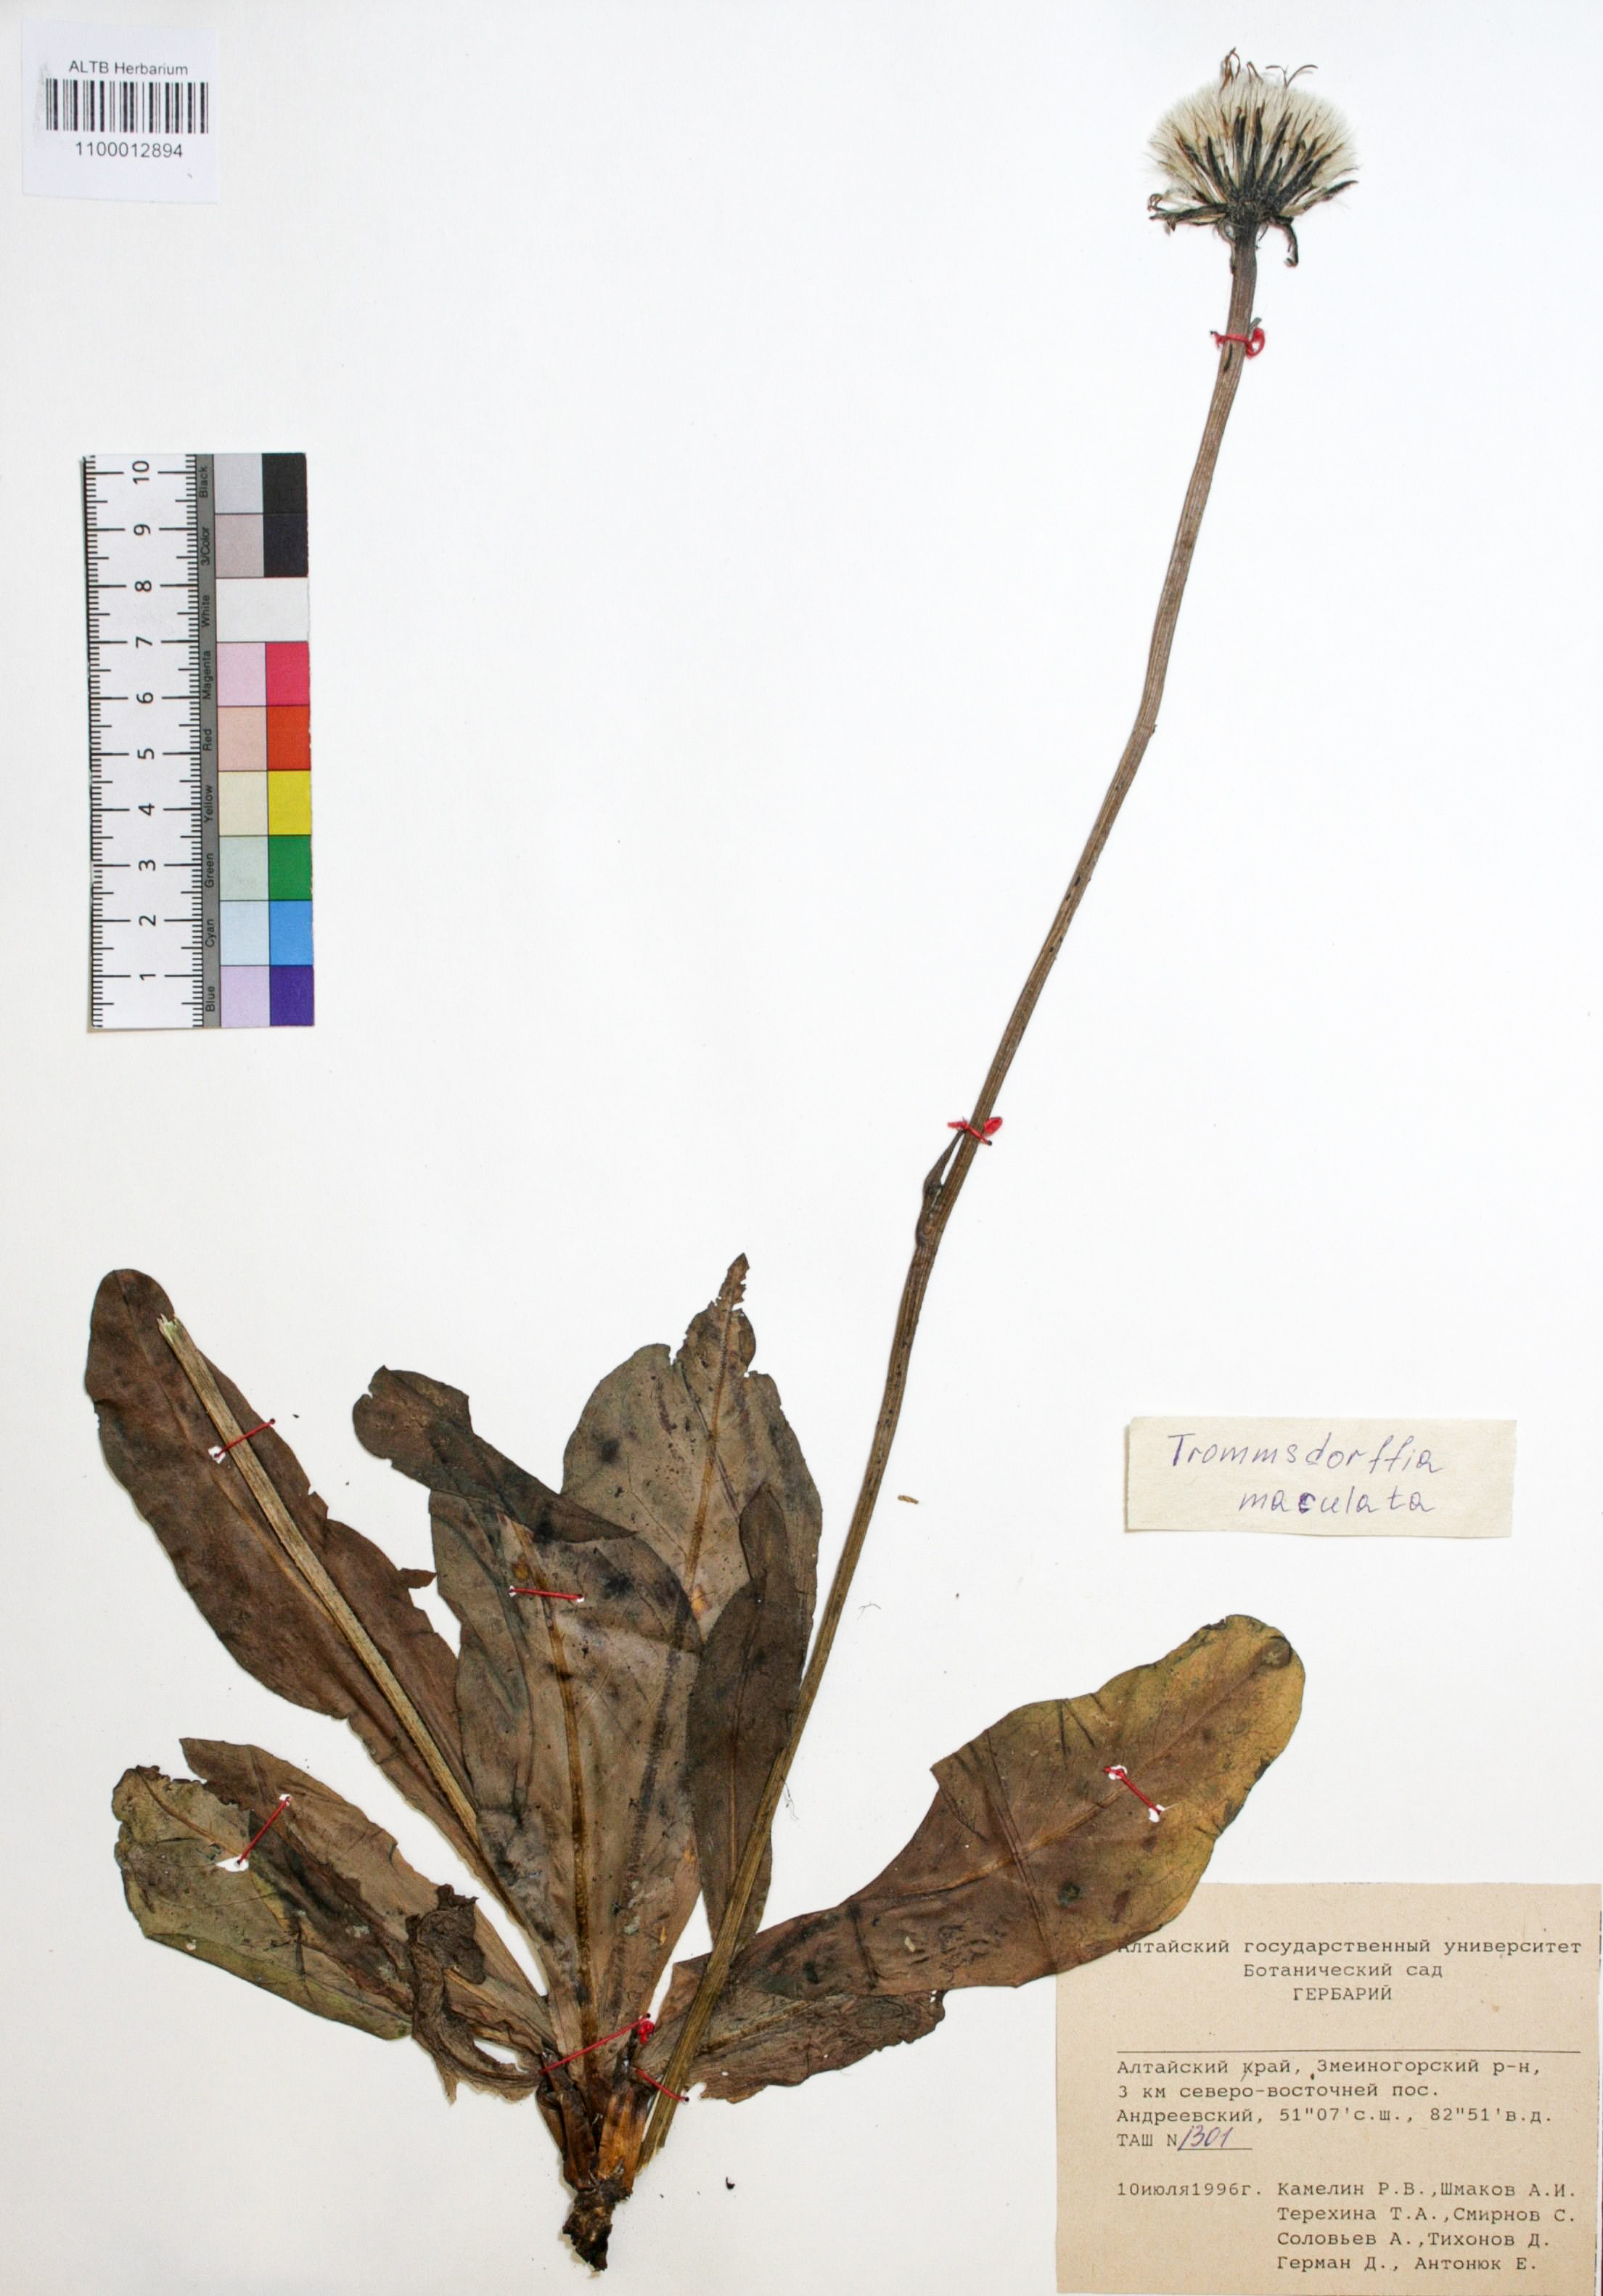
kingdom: Plantae
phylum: Tracheophyta
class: Magnoliopsida
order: Asterales
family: Asteraceae
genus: Trommsdorffia
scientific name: Trommsdorffia maculata
